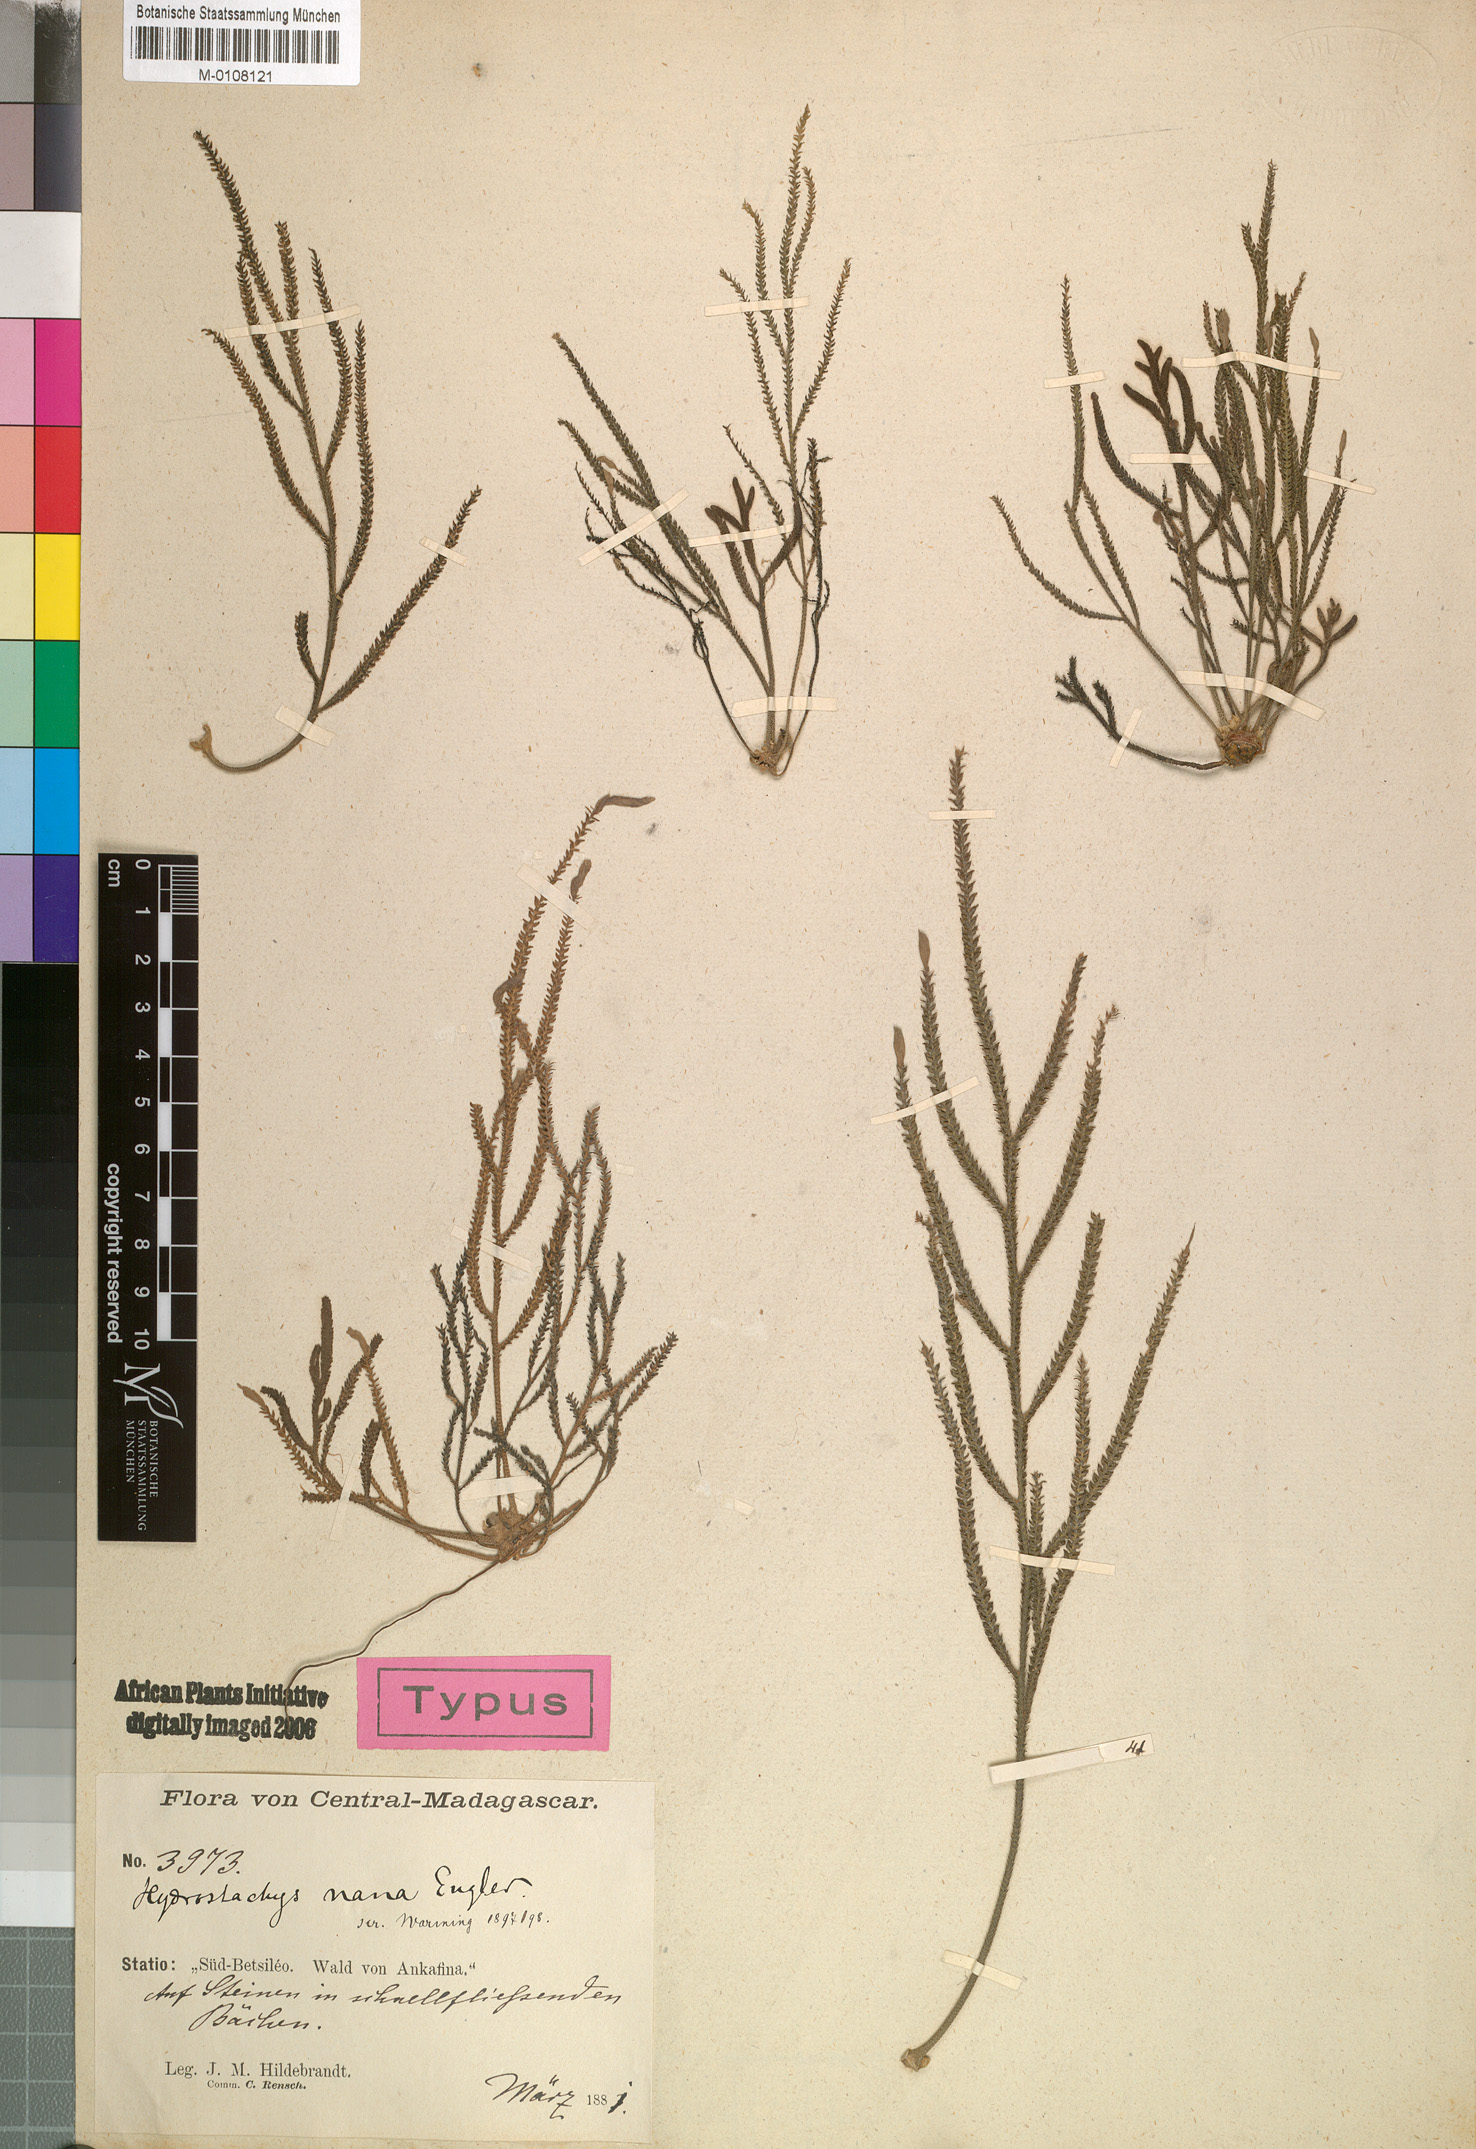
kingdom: Plantae
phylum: Tracheophyta
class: Magnoliopsida
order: Cornales
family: Hydrostachyaceae
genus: Hydrostachys
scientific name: Hydrostachys distichophylla
